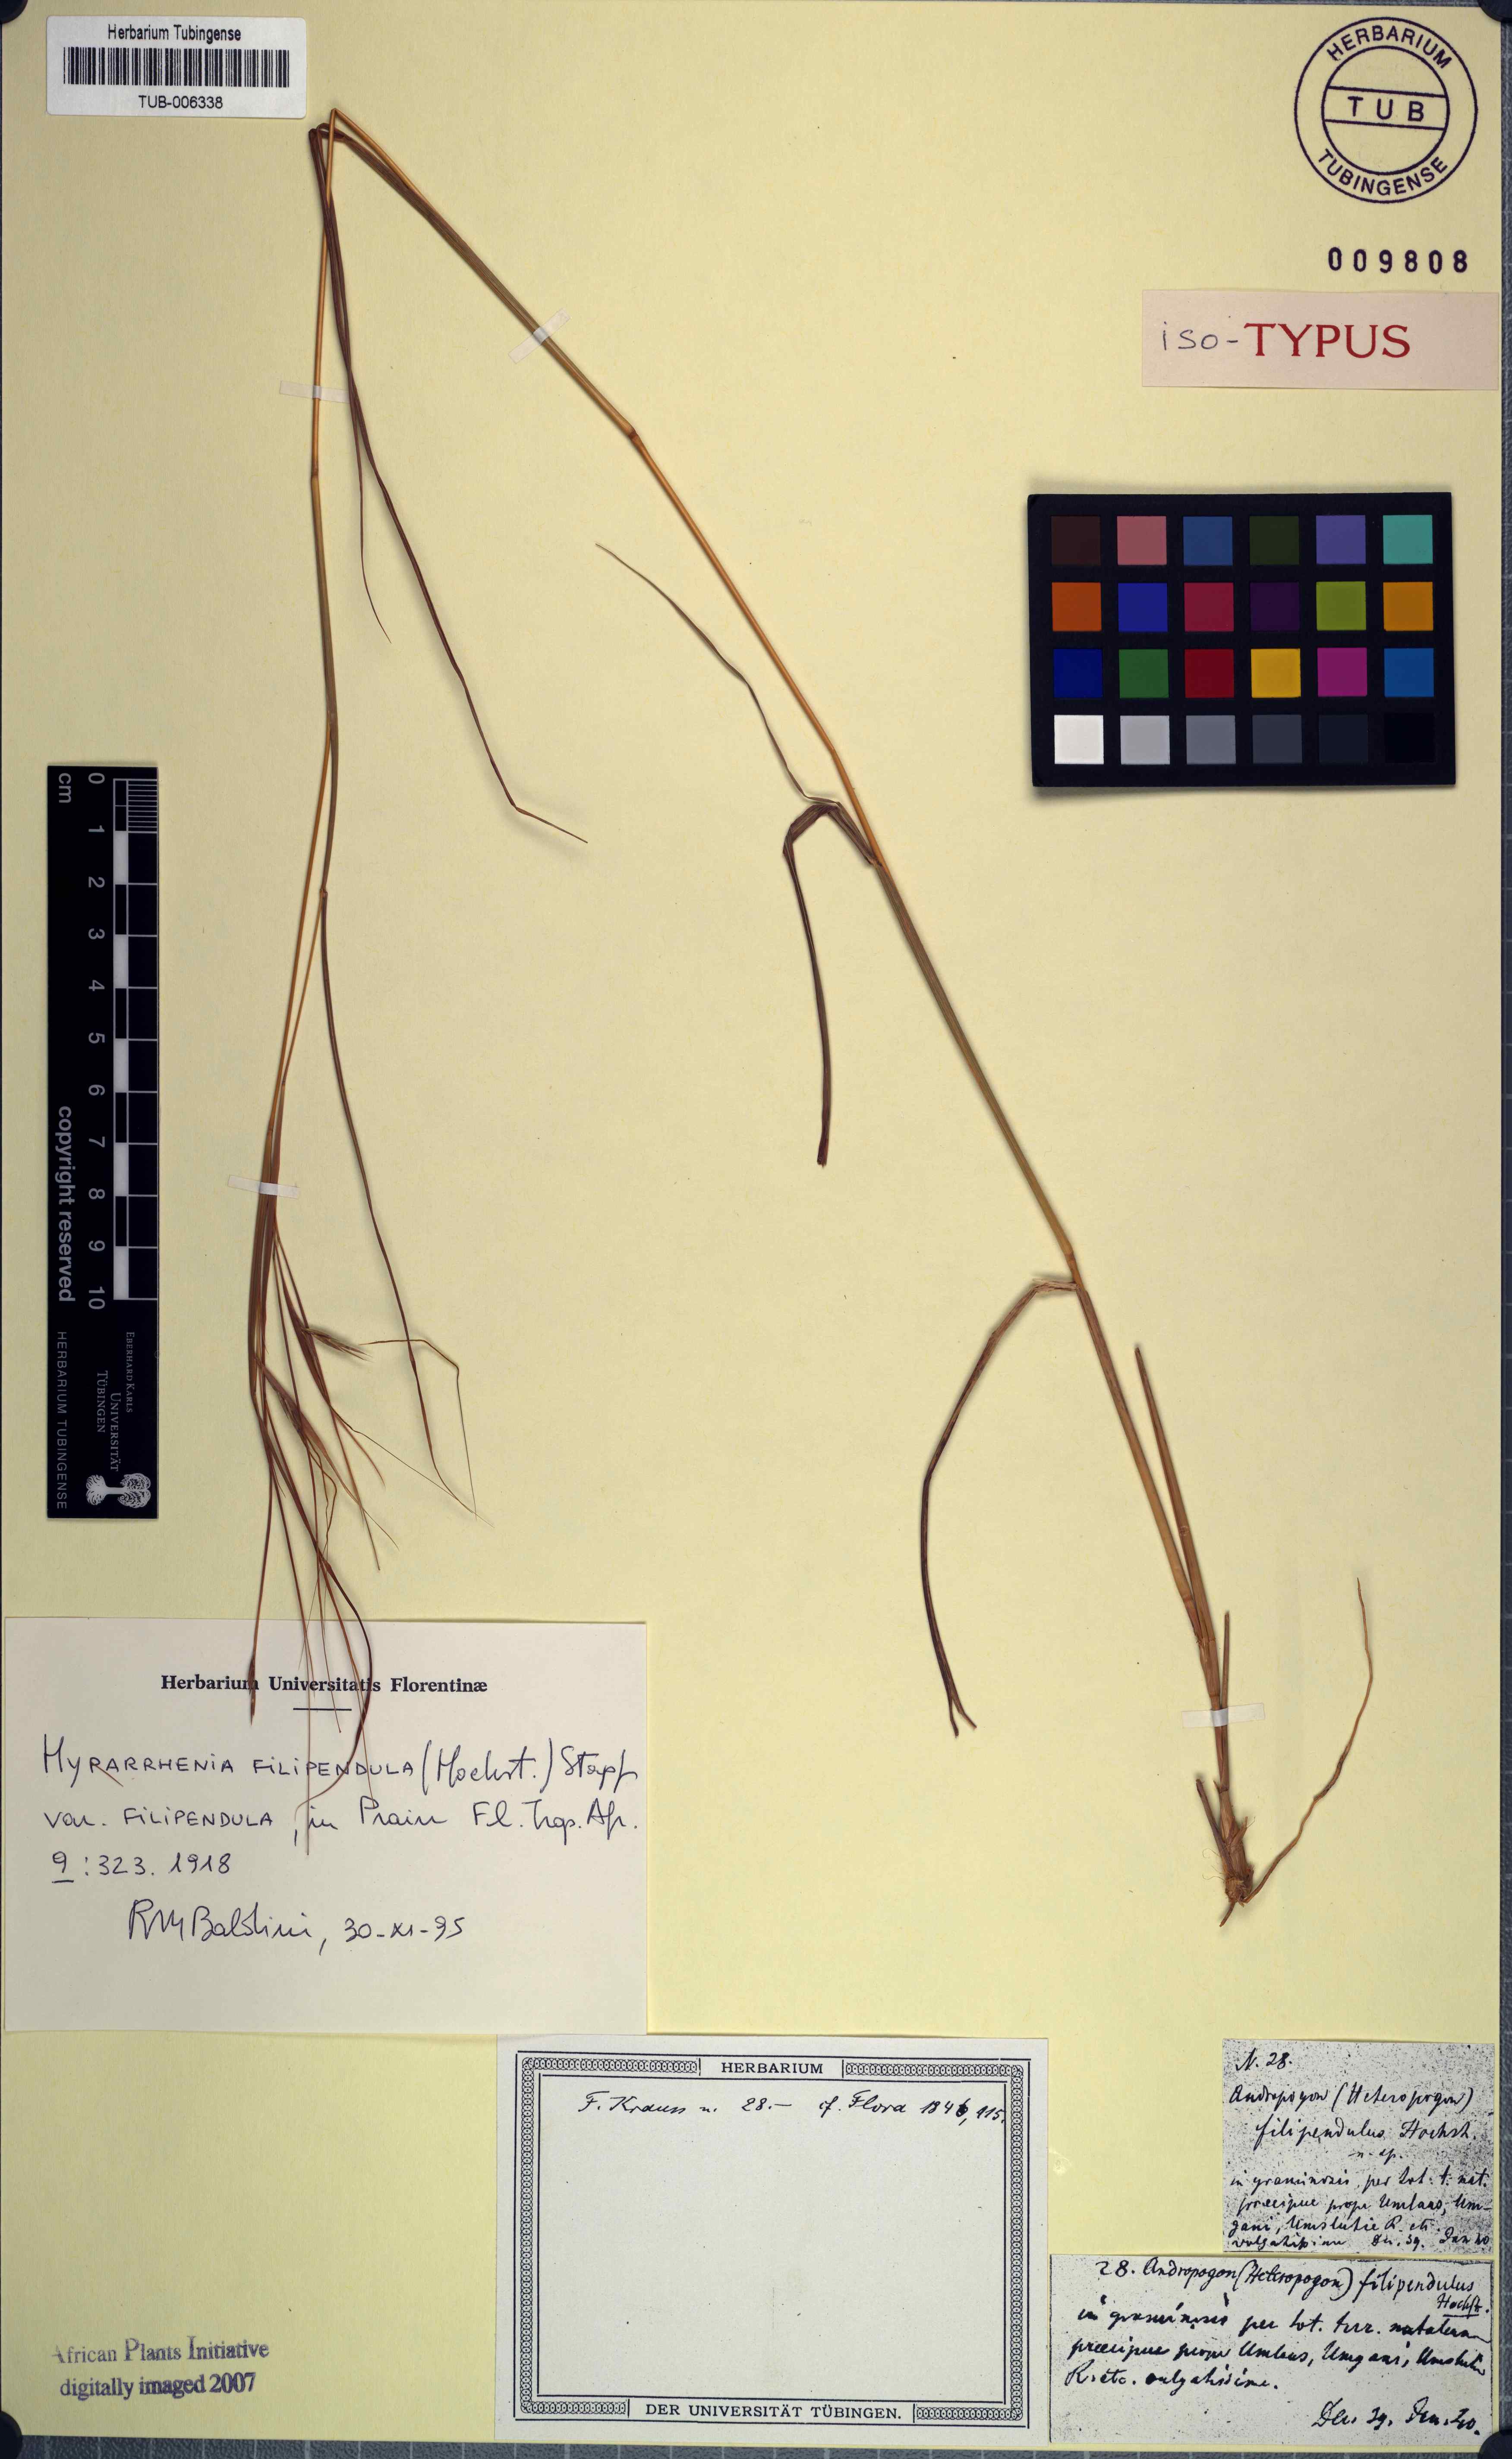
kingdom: Plantae
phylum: Tracheophyta
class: Liliopsida
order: Poales
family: Poaceae
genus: Hyparrhenia
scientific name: Hyparrhenia filipendula
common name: Tambookie grass
